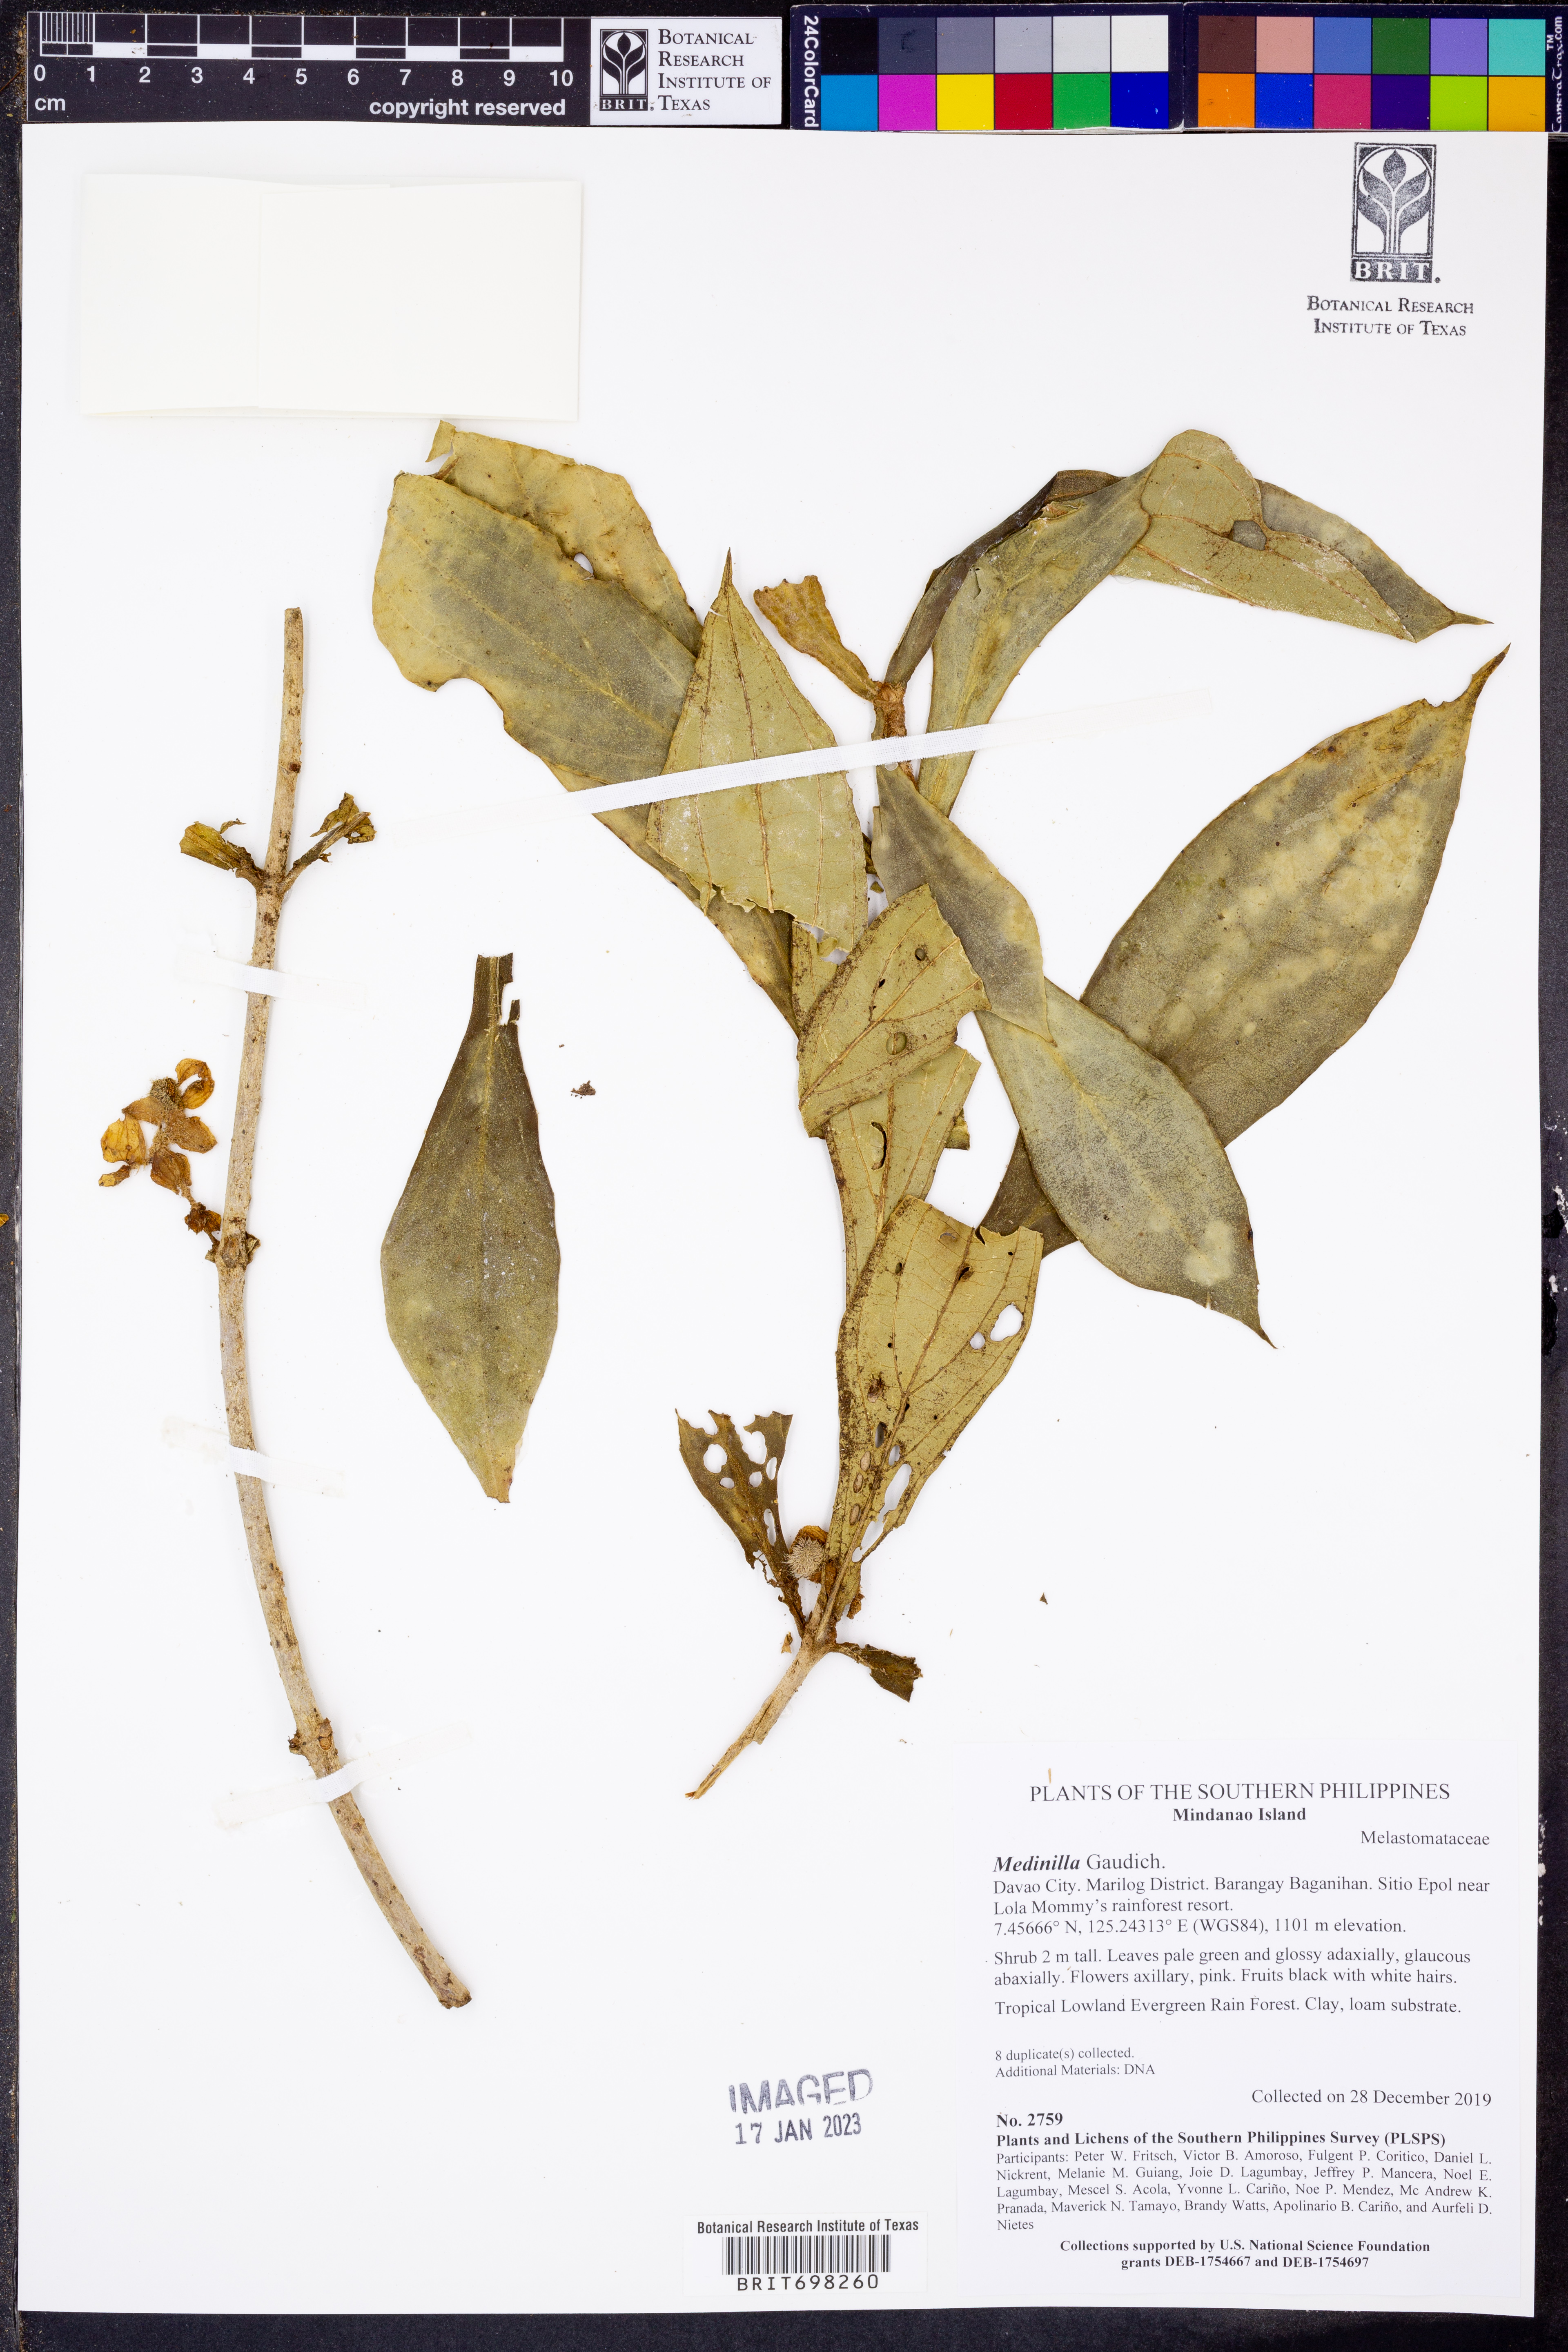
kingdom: Plantae
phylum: Tracheophyta
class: Magnoliopsida
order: Myrtales
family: Melastomataceae
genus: Medinilla
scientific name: Medinilla
